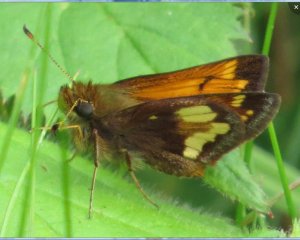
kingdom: Animalia
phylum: Arthropoda
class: Insecta
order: Lepidoptera
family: Hesperiidae
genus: Lon
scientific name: Lon hobomok
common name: Hobomok Skipper
